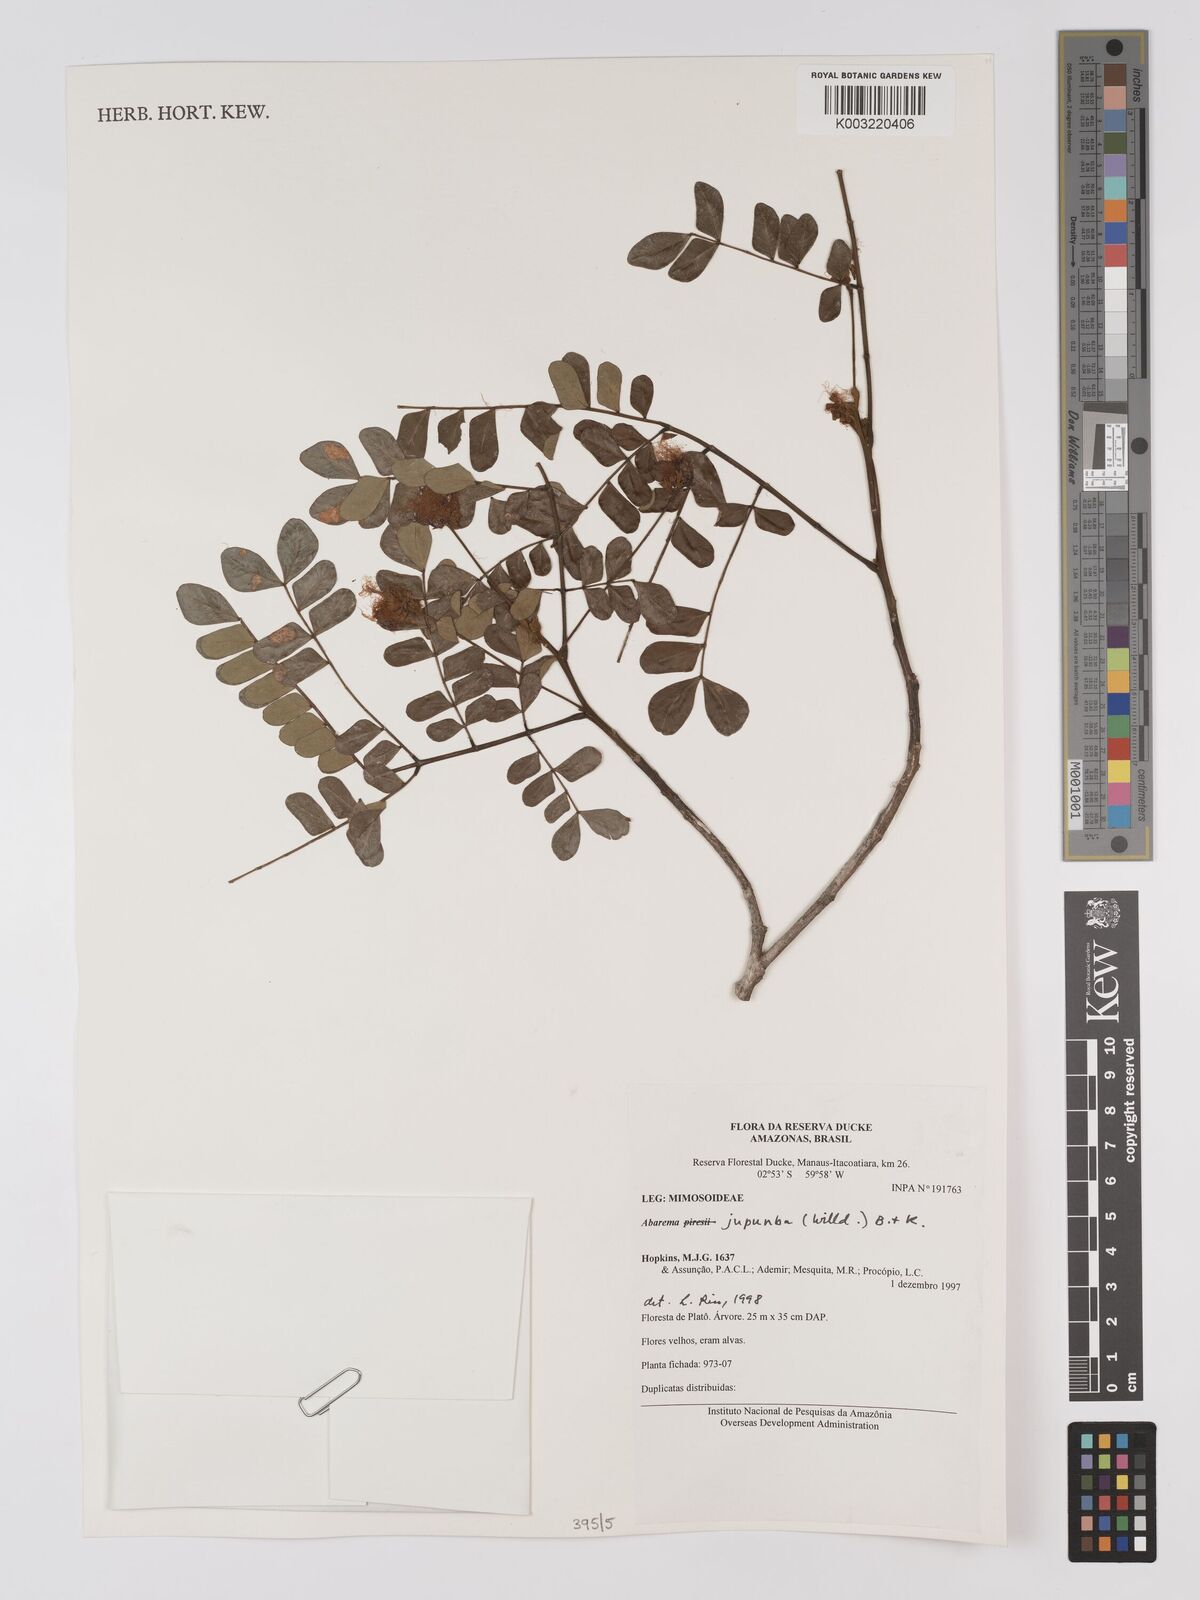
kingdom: Plantae
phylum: Tracheophyta
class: Magnoliopsida
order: Fabales
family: Fabaceae
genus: Jupunba
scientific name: Jupunba trapezifolia
